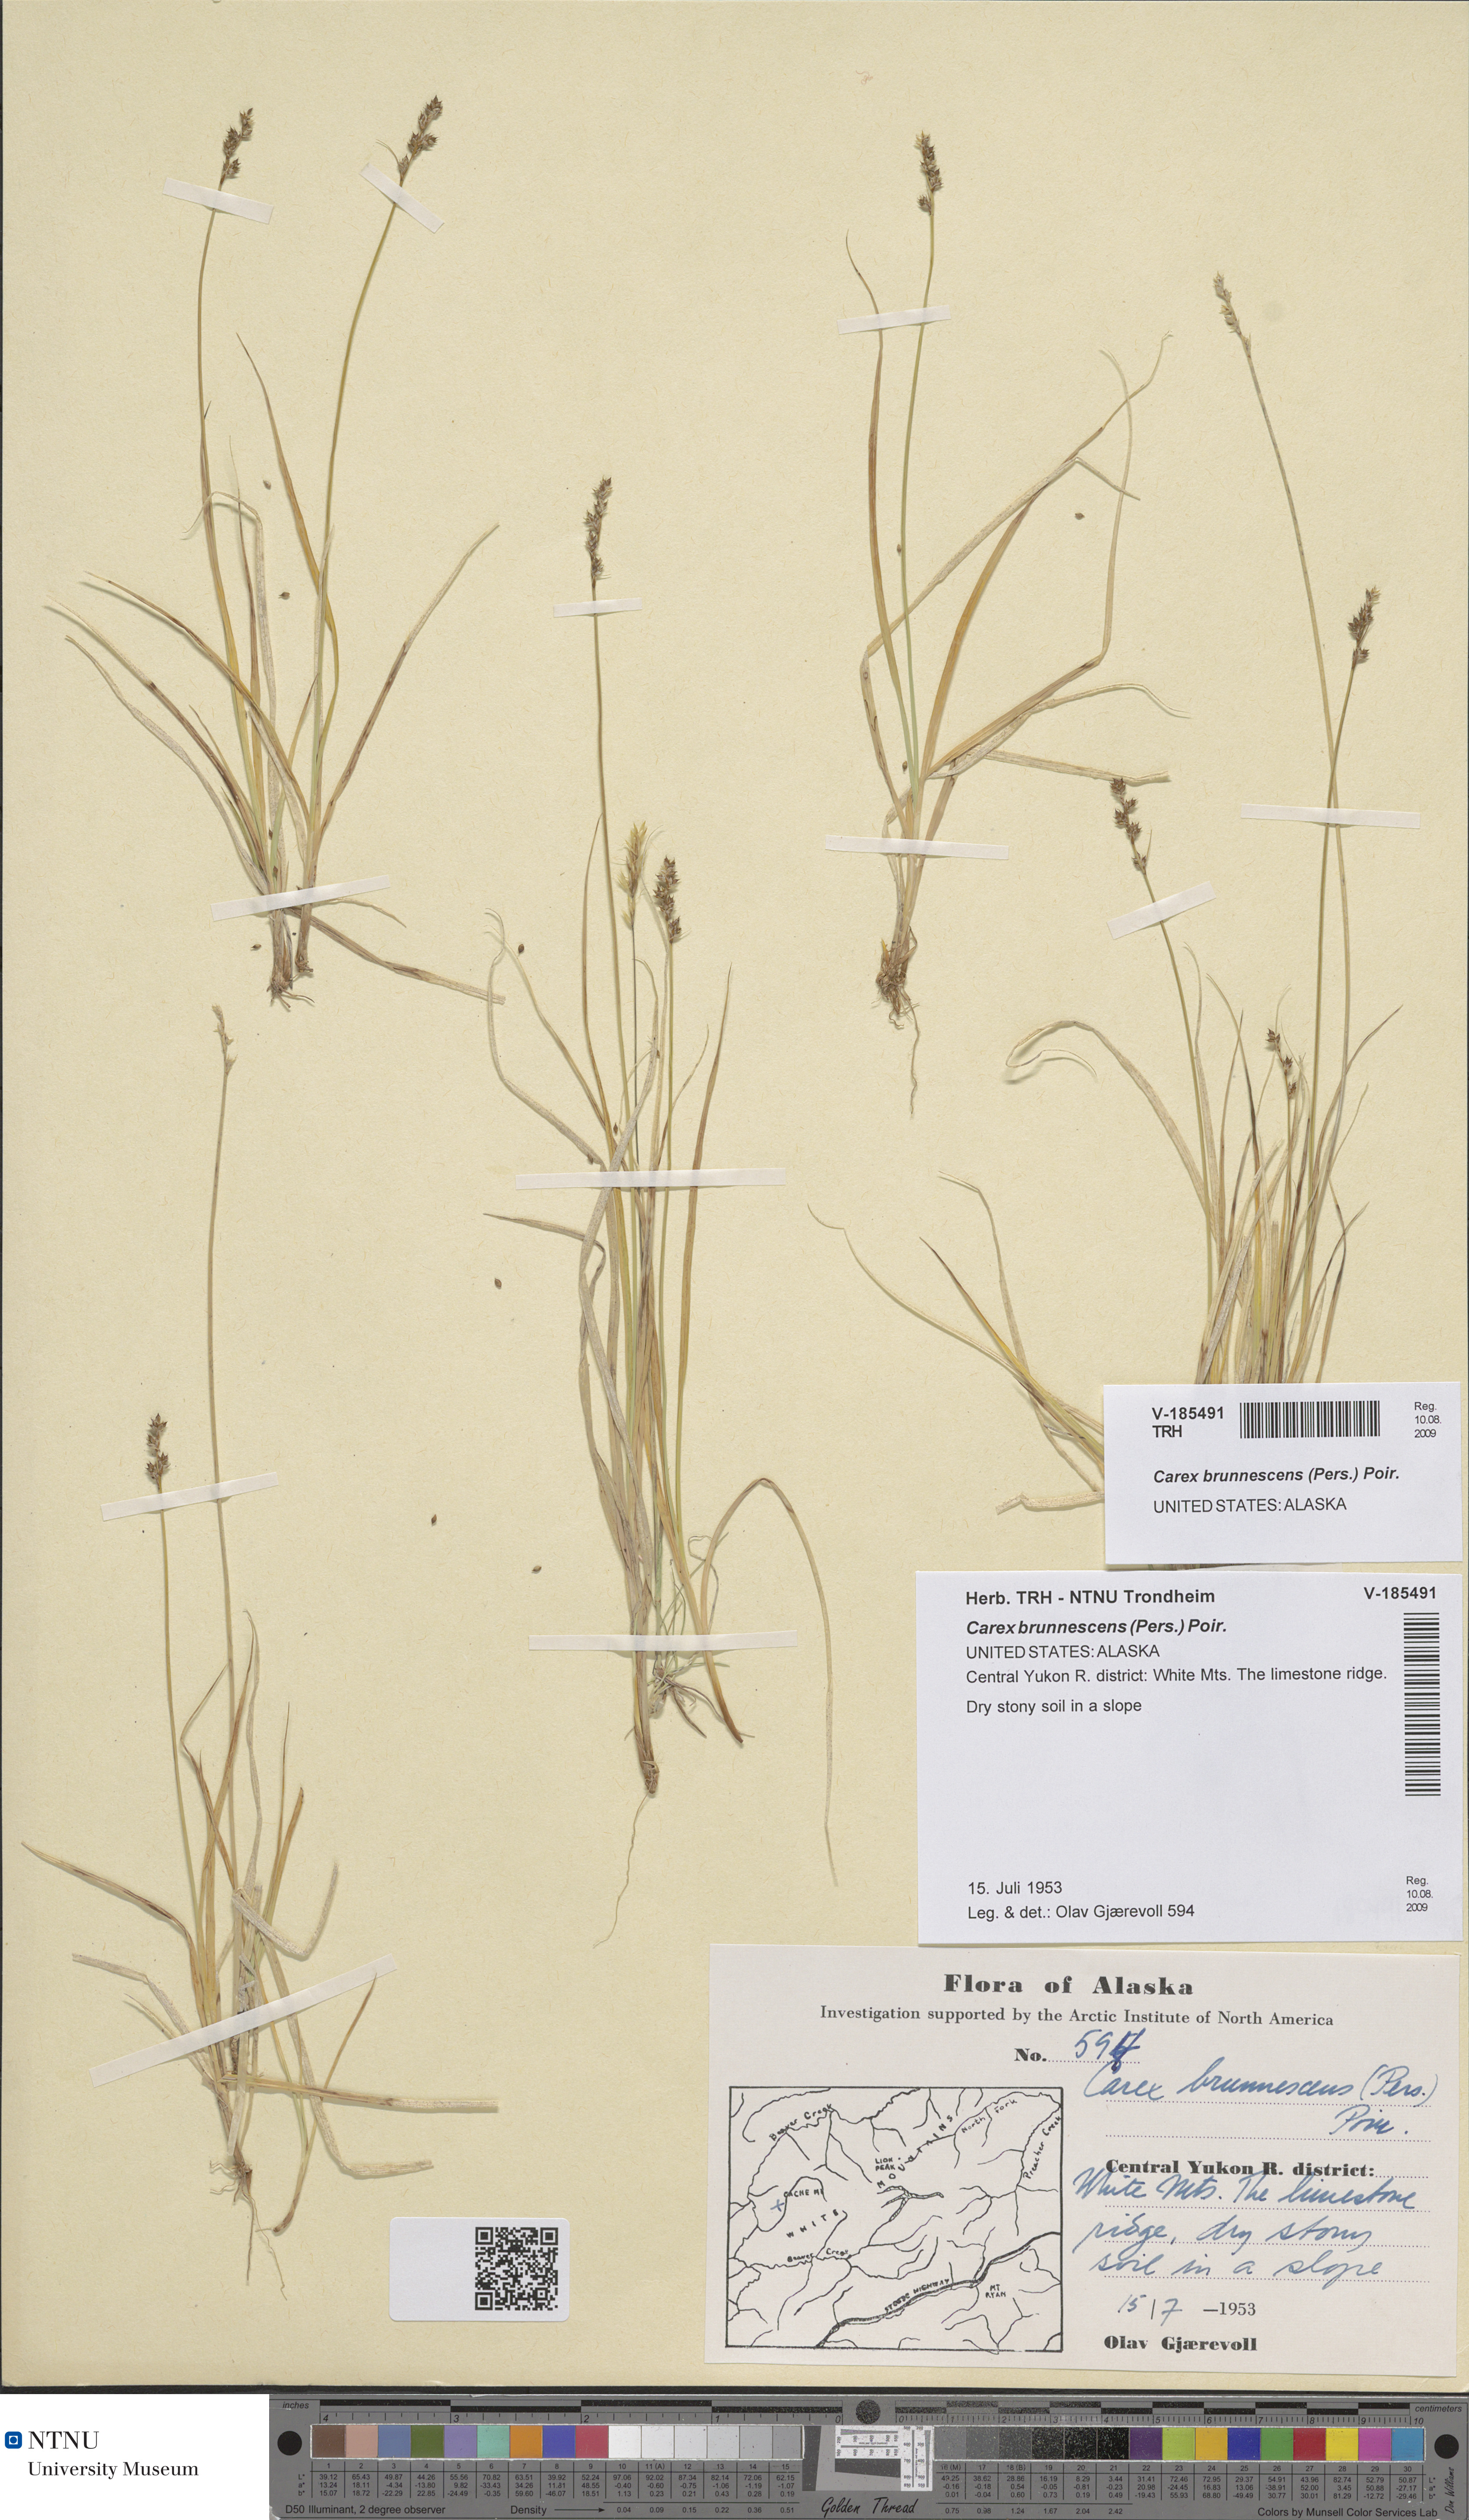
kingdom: Plantae
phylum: Tracheophyta
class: Liliopsida
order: Poales
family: Cyperaceae
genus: Carex
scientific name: Carex brunnescens
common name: Brown sedge
